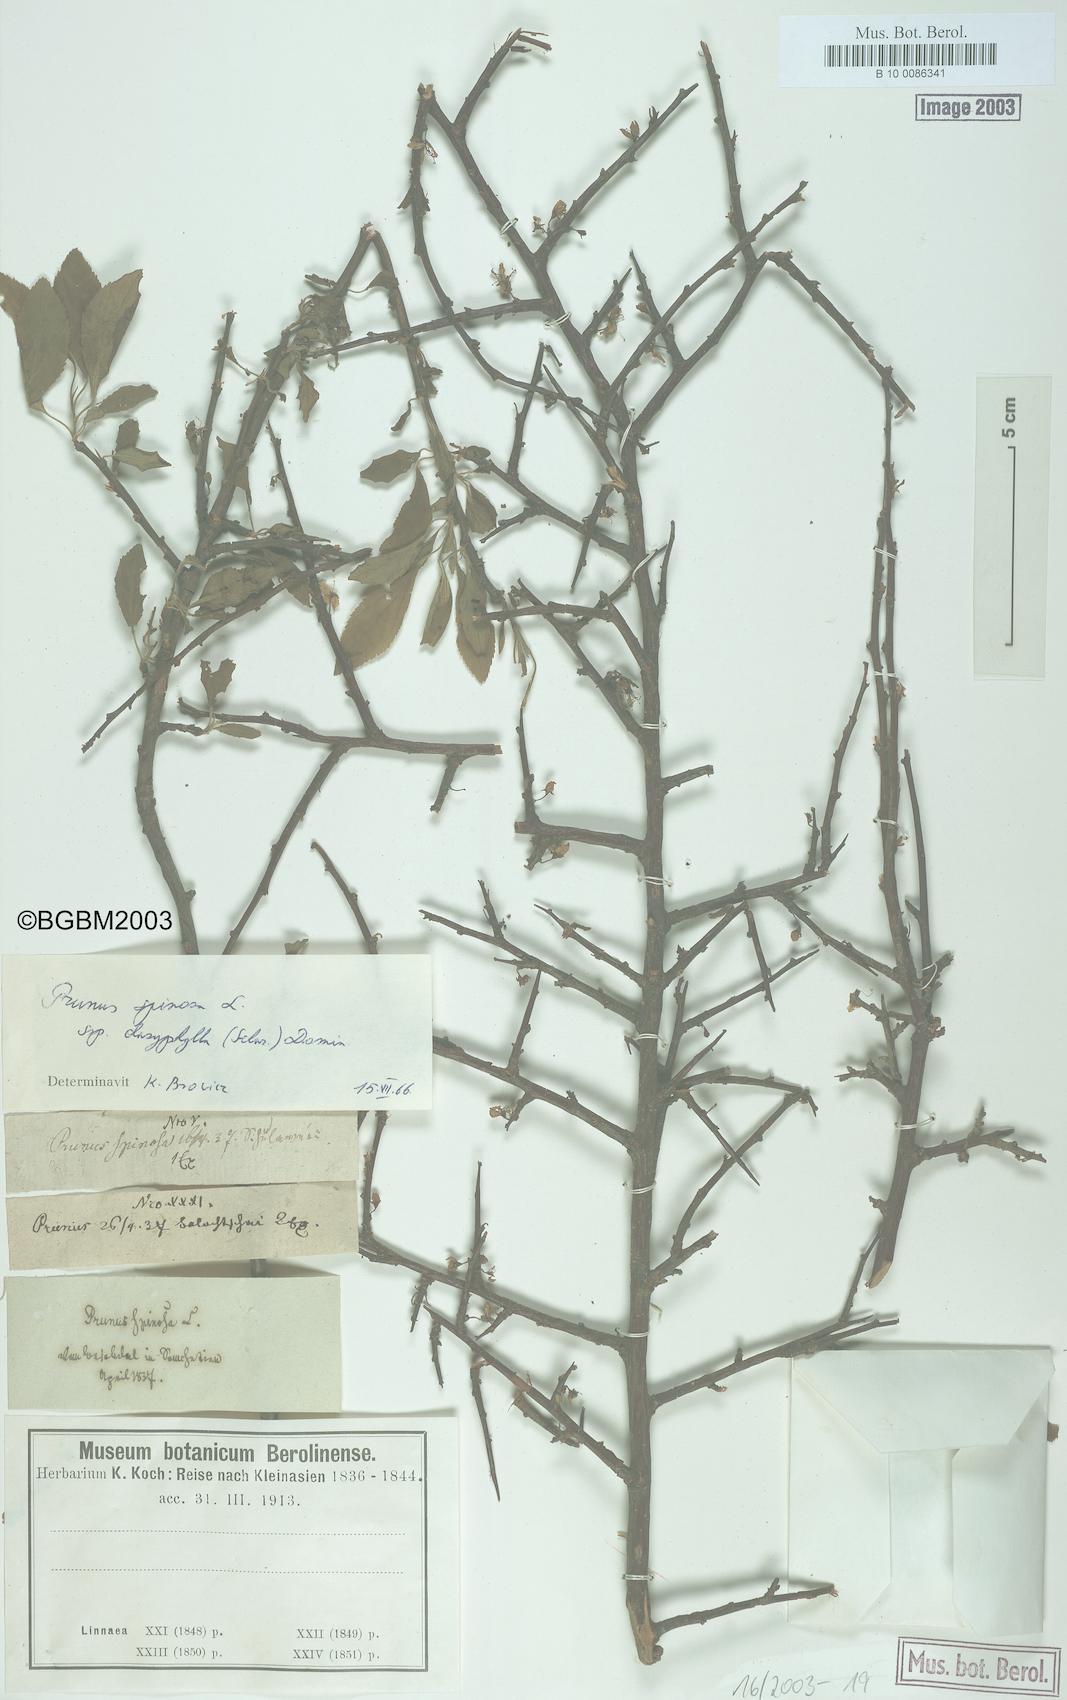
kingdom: Plantae
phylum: Tracheophyta
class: Magnoliopsida
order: Rosales
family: Rosaceae
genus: Prunus
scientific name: Prunus spinosa
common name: Blackthorn
